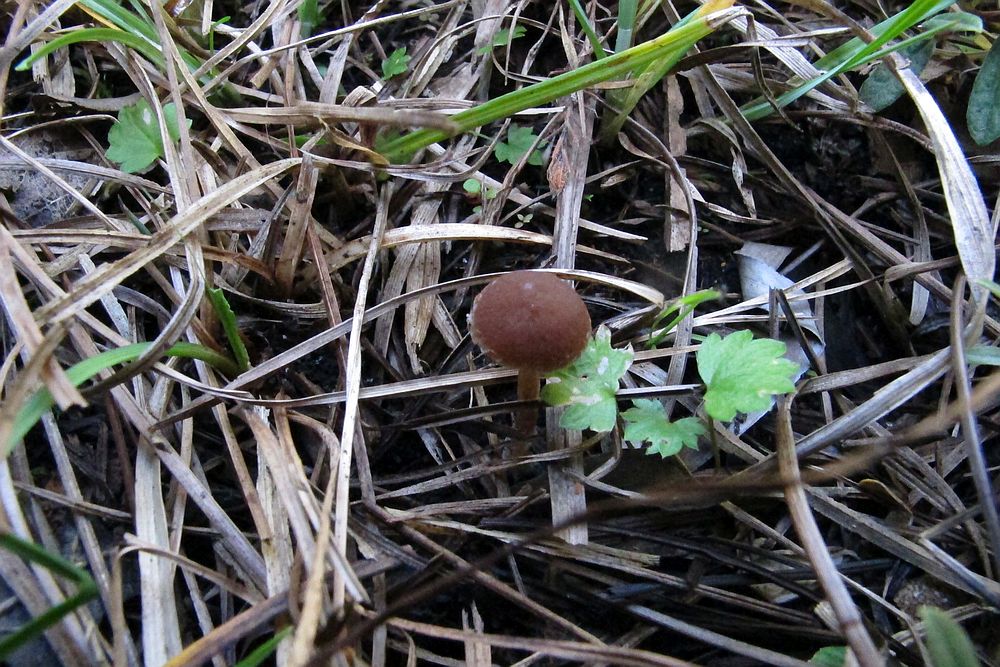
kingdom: Fungi
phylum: Basidiomycota
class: Agaricomycetes
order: Agaricales
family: Psathyrellaceae
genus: Psathyrella
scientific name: Psathyrella
